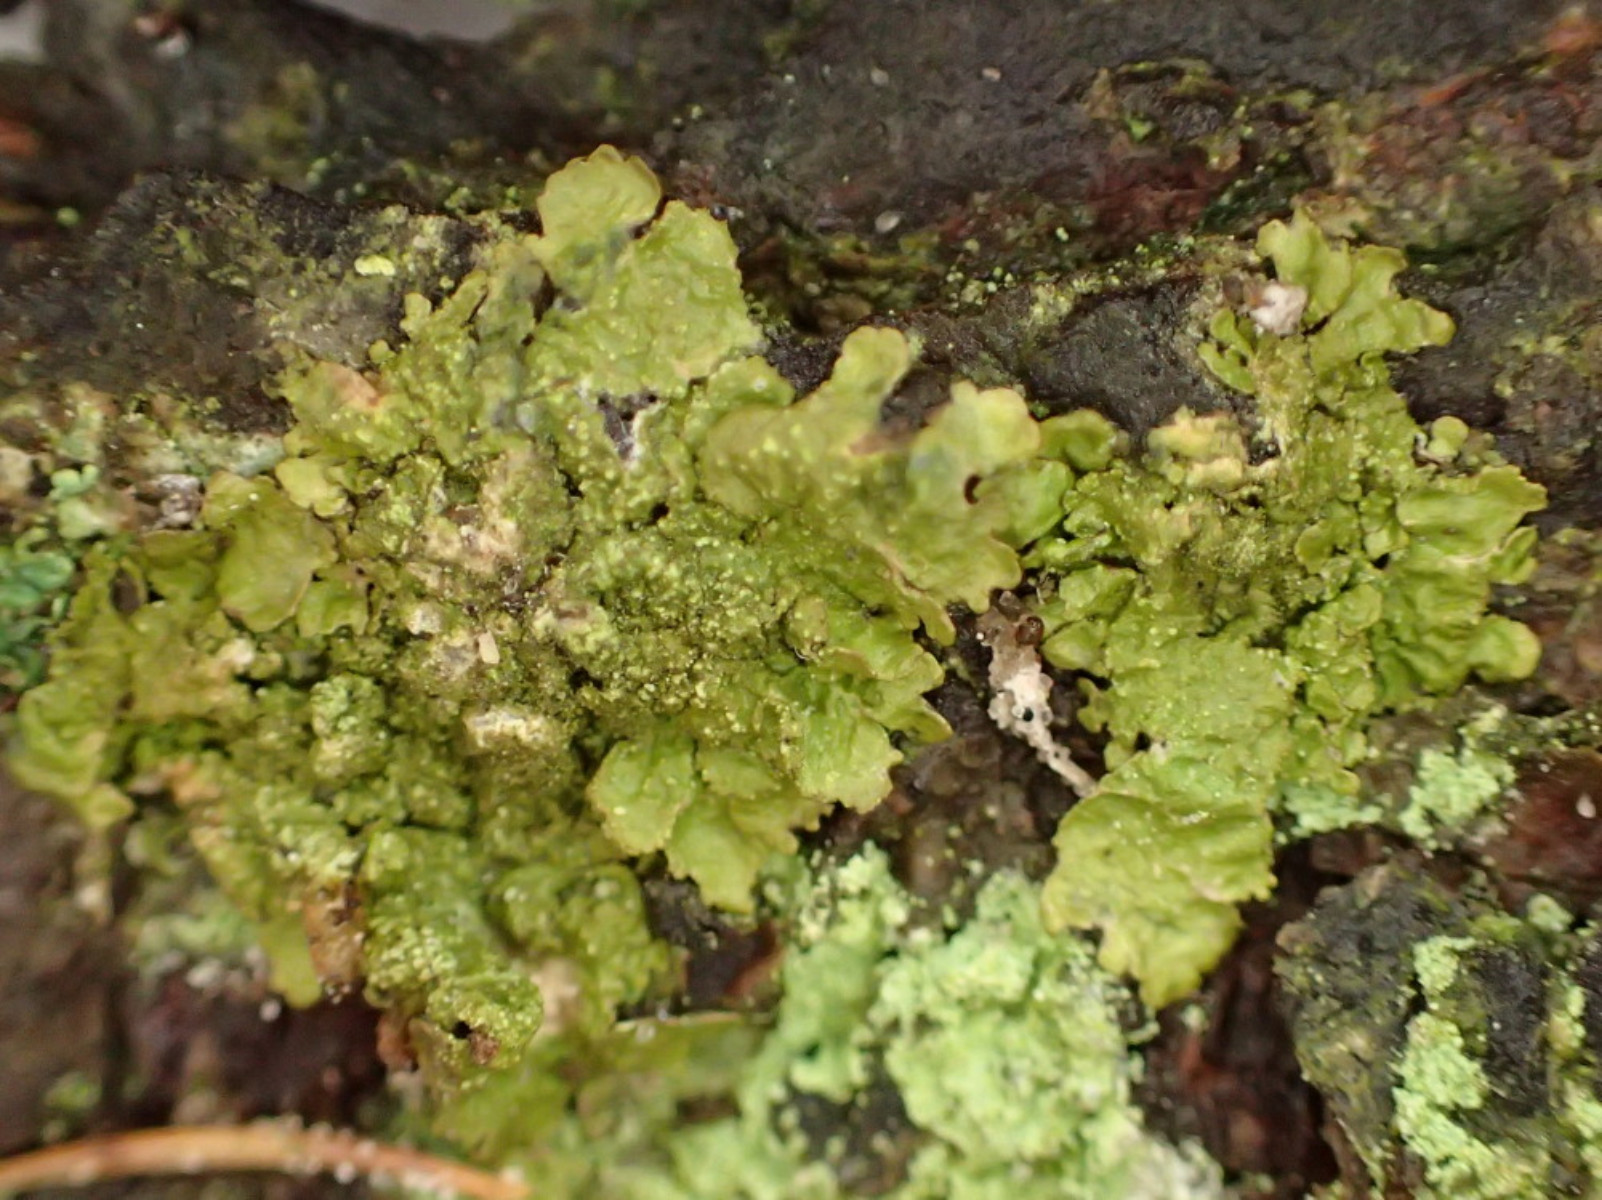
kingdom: Fungi
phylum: Ascomycota
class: Lecanoromycetes
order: Lecanorales
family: Parmeliaceae
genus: Melanelixia
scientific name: Melanelixia subaurifera
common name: guldpudret skållav
